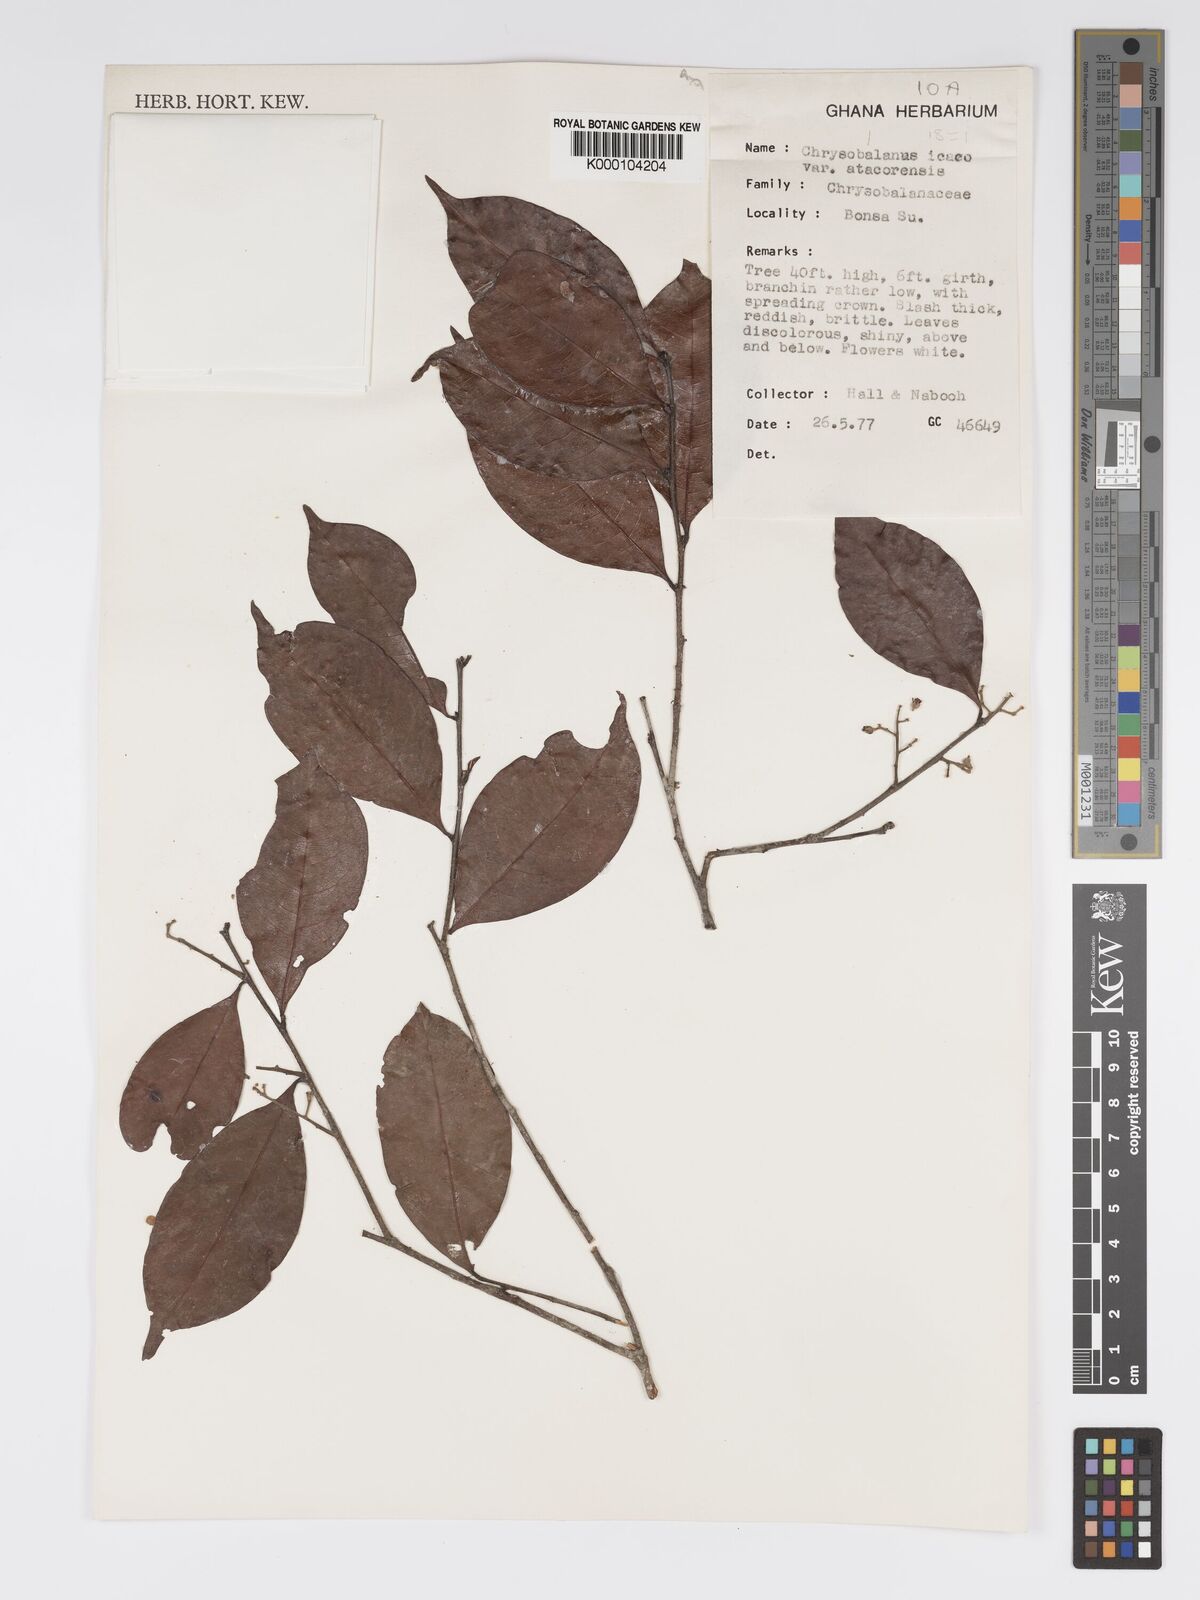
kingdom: Plantae
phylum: Tracheophyta
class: Magnoliopsida
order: Malpighiales
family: Chrysobalanaceae
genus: Chrysobalanus
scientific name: Chrysobalanus icaco
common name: Coco plum
